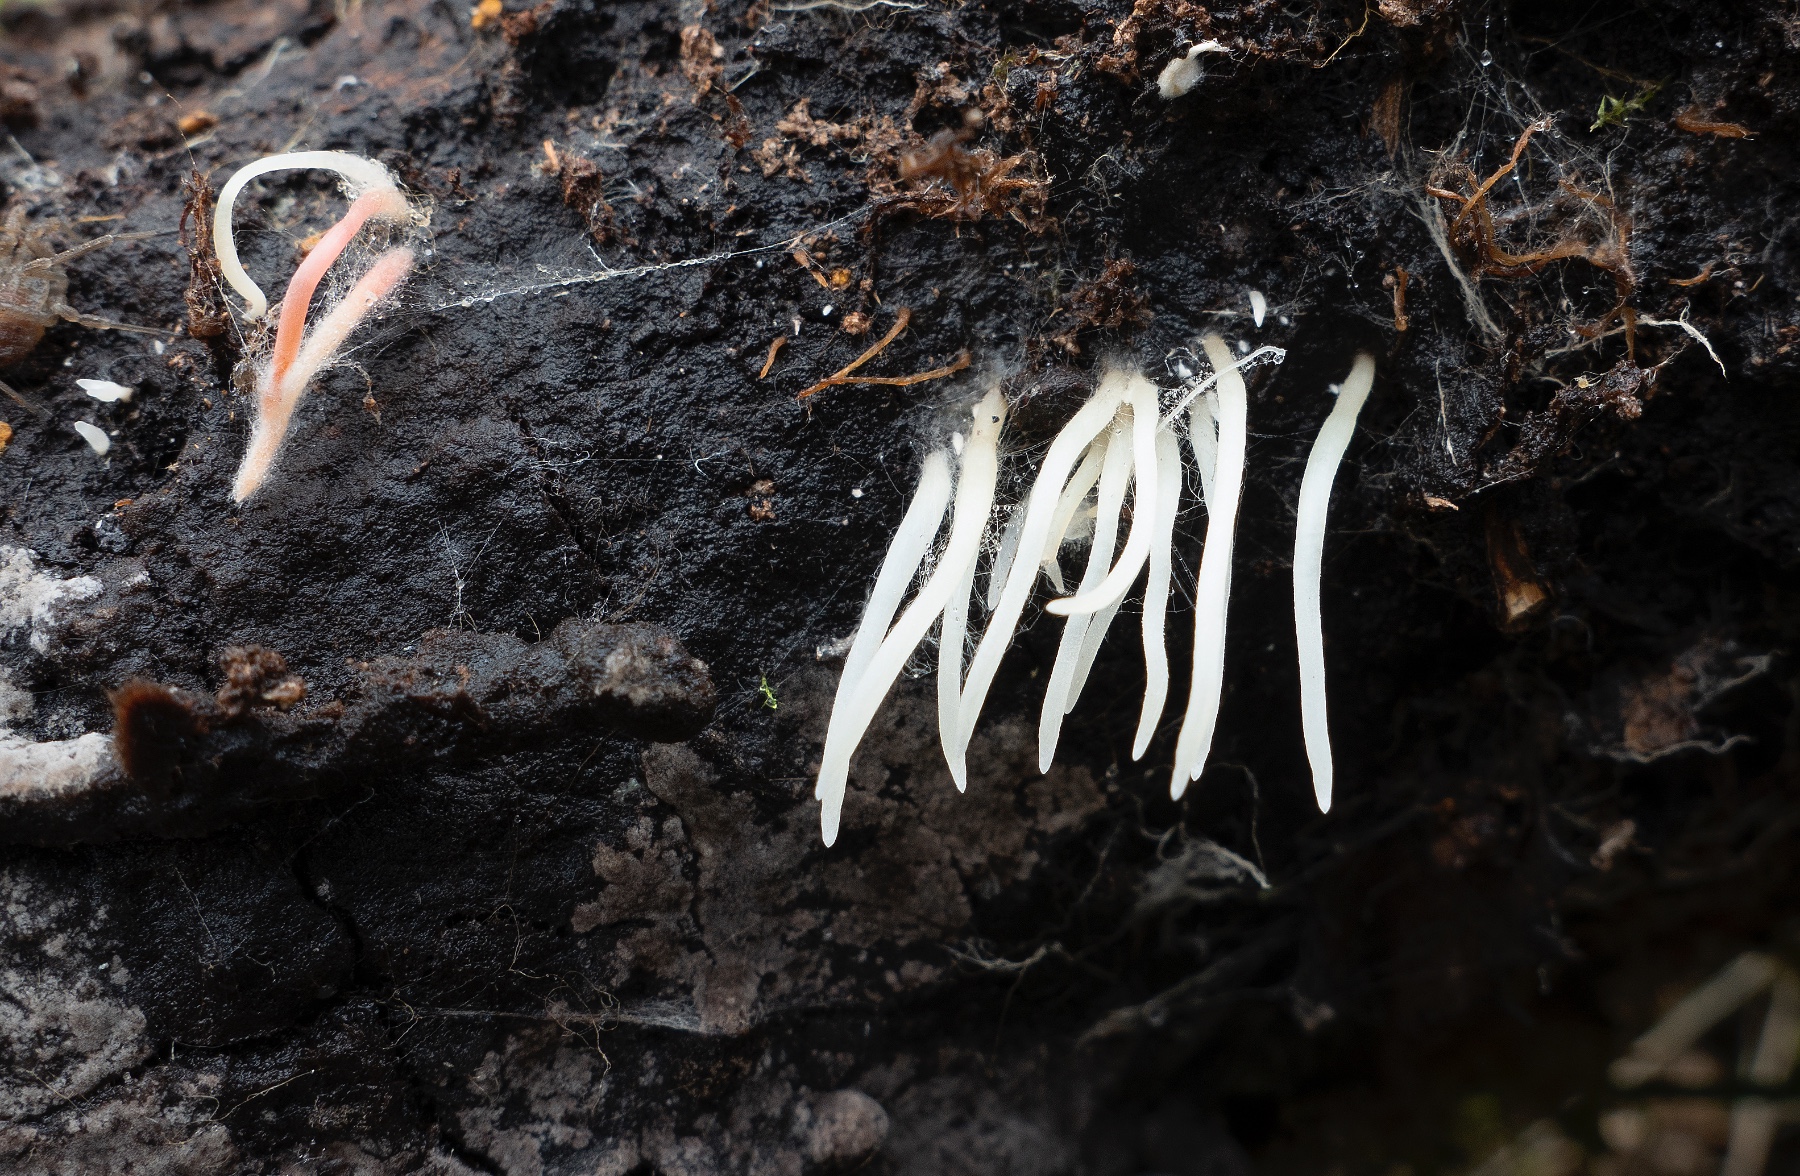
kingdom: Fungi
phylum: Basidiomycota
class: Agaricomycetes
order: Agaricales
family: Clavariaceae
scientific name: Clavariaceae
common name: køllesvampfamilien
